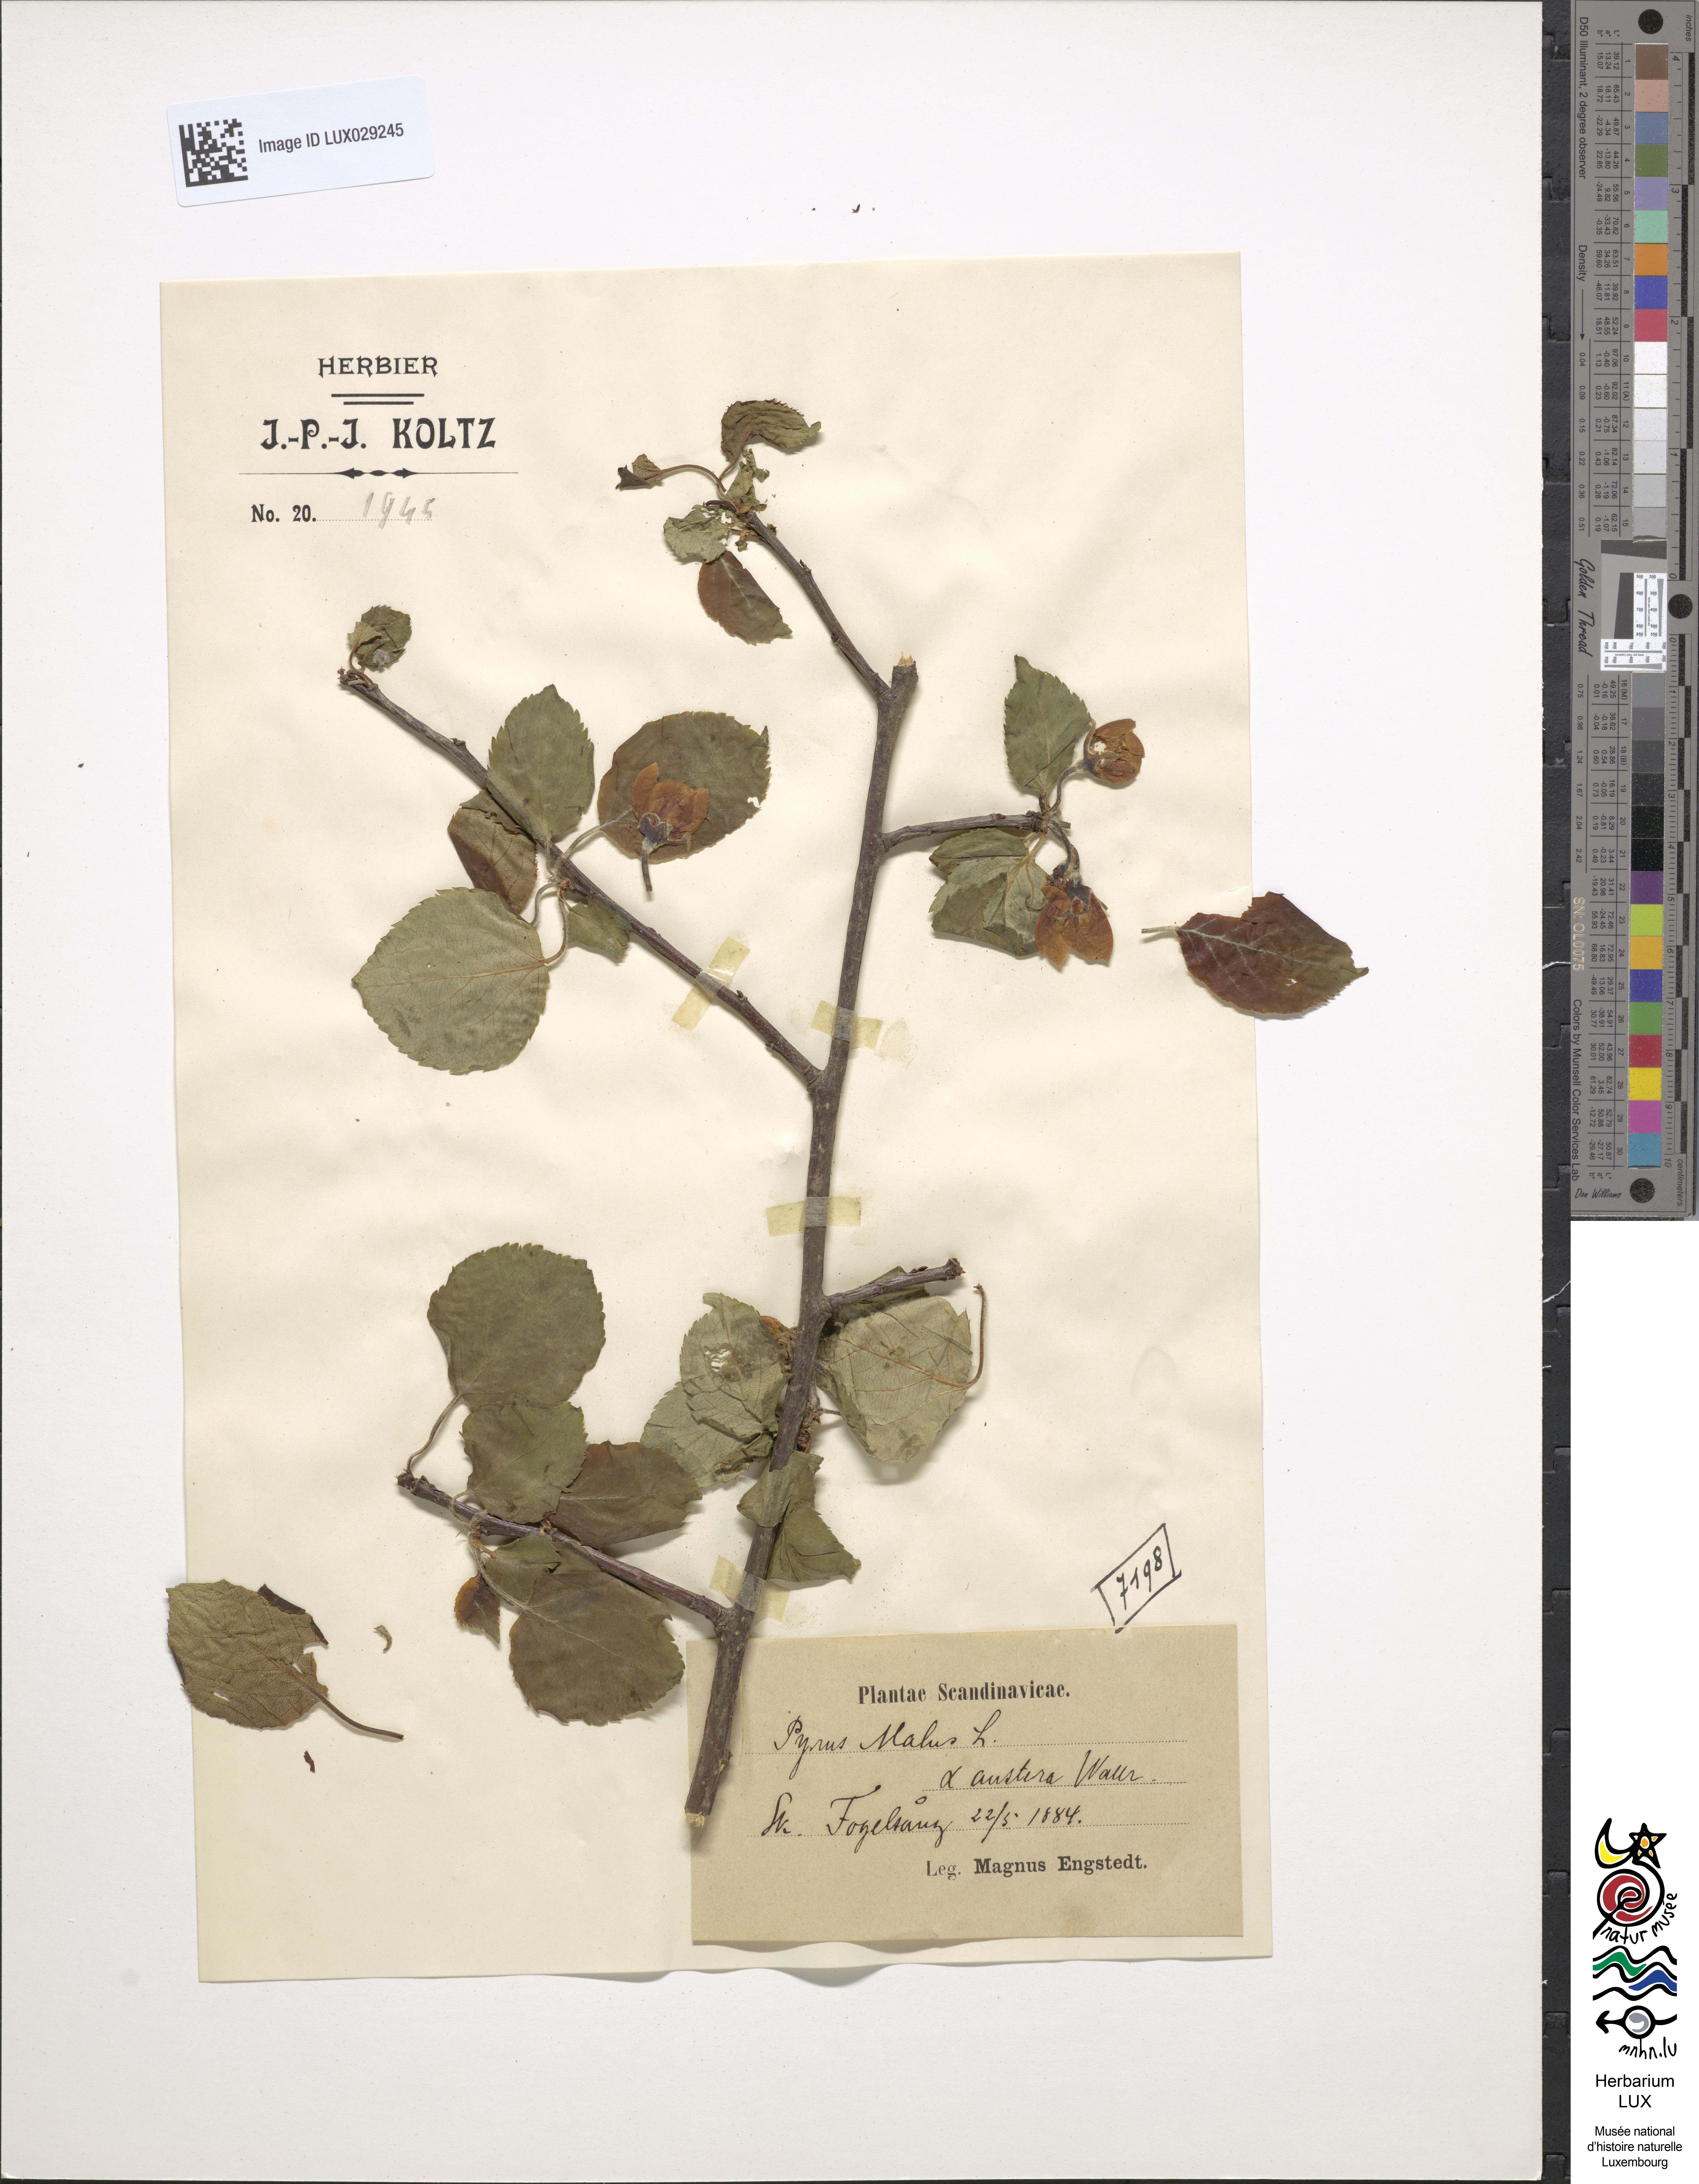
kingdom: Plantae
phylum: Tracheophyta
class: Magnoliopsida
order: Rosales
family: Rosaceae
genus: Malus
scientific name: Malus sylvestris
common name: Crab apple
